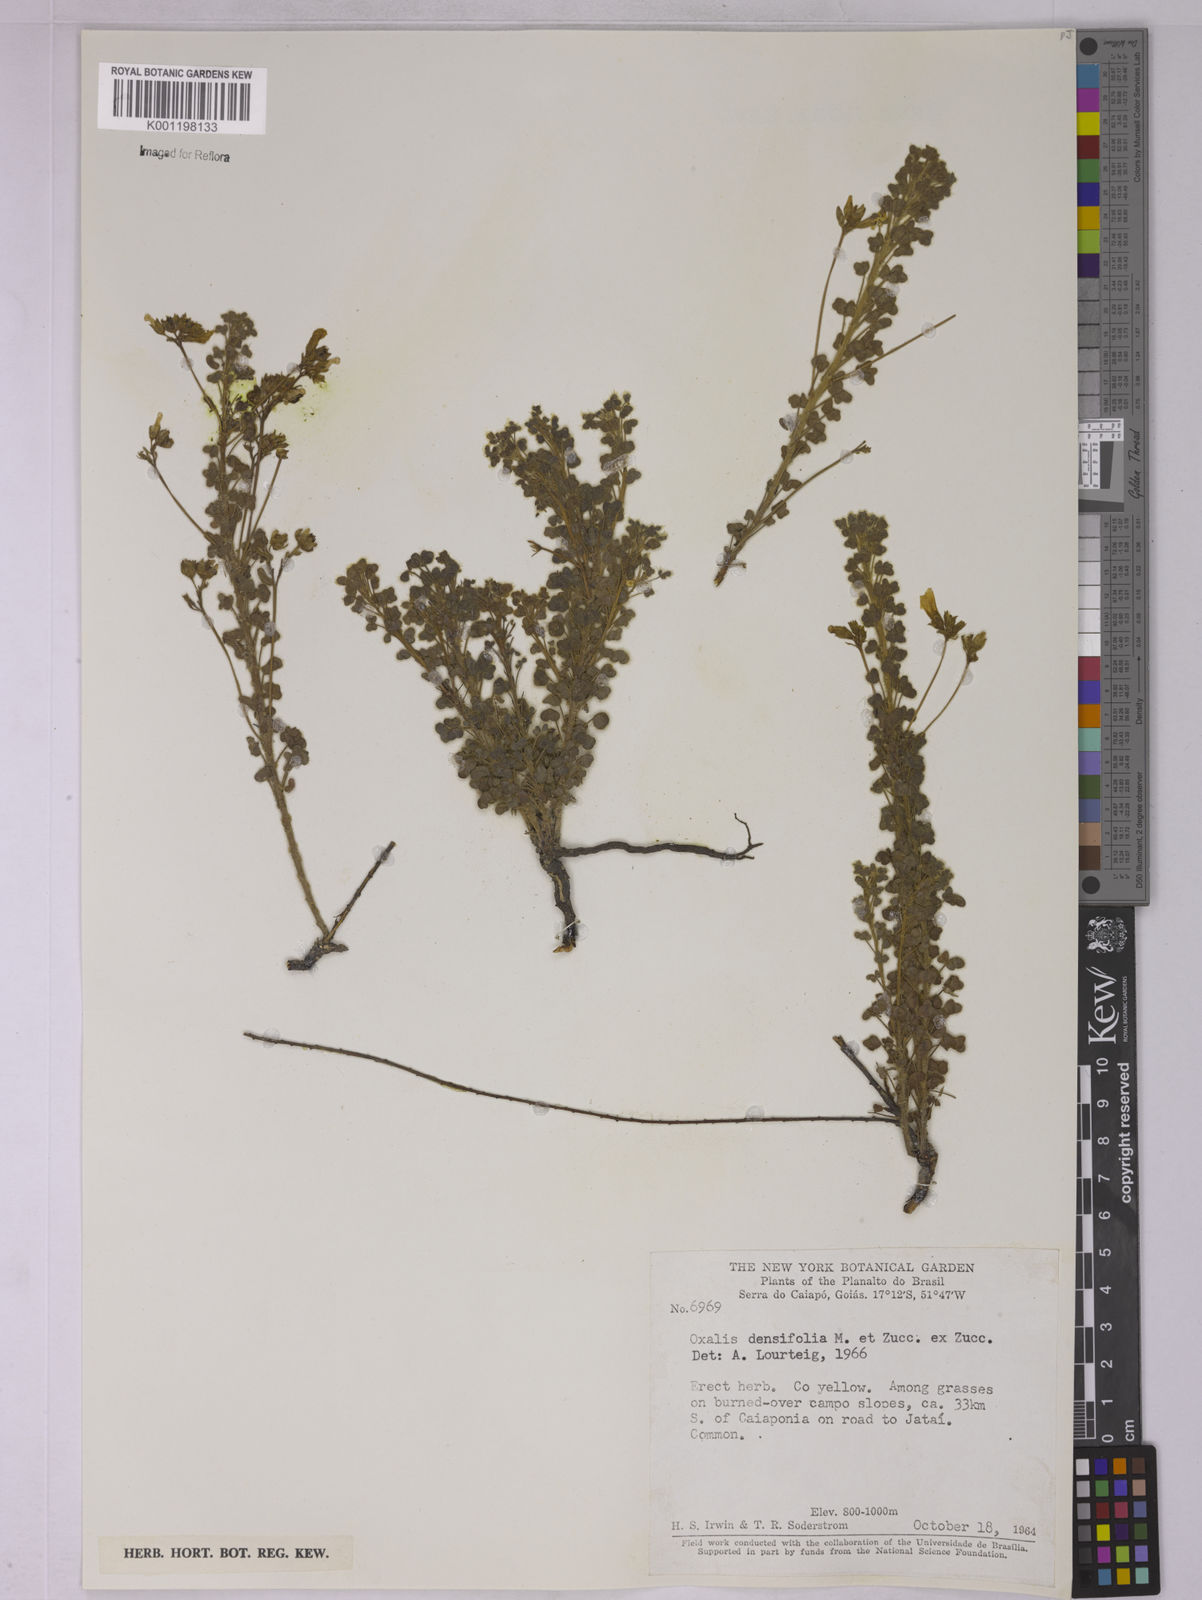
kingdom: Plantae
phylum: Tracheophyta
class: Magnoliopsida
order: Oxalidales
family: Oxalidaceae
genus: Oxalis
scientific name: Oxalis densifolia
